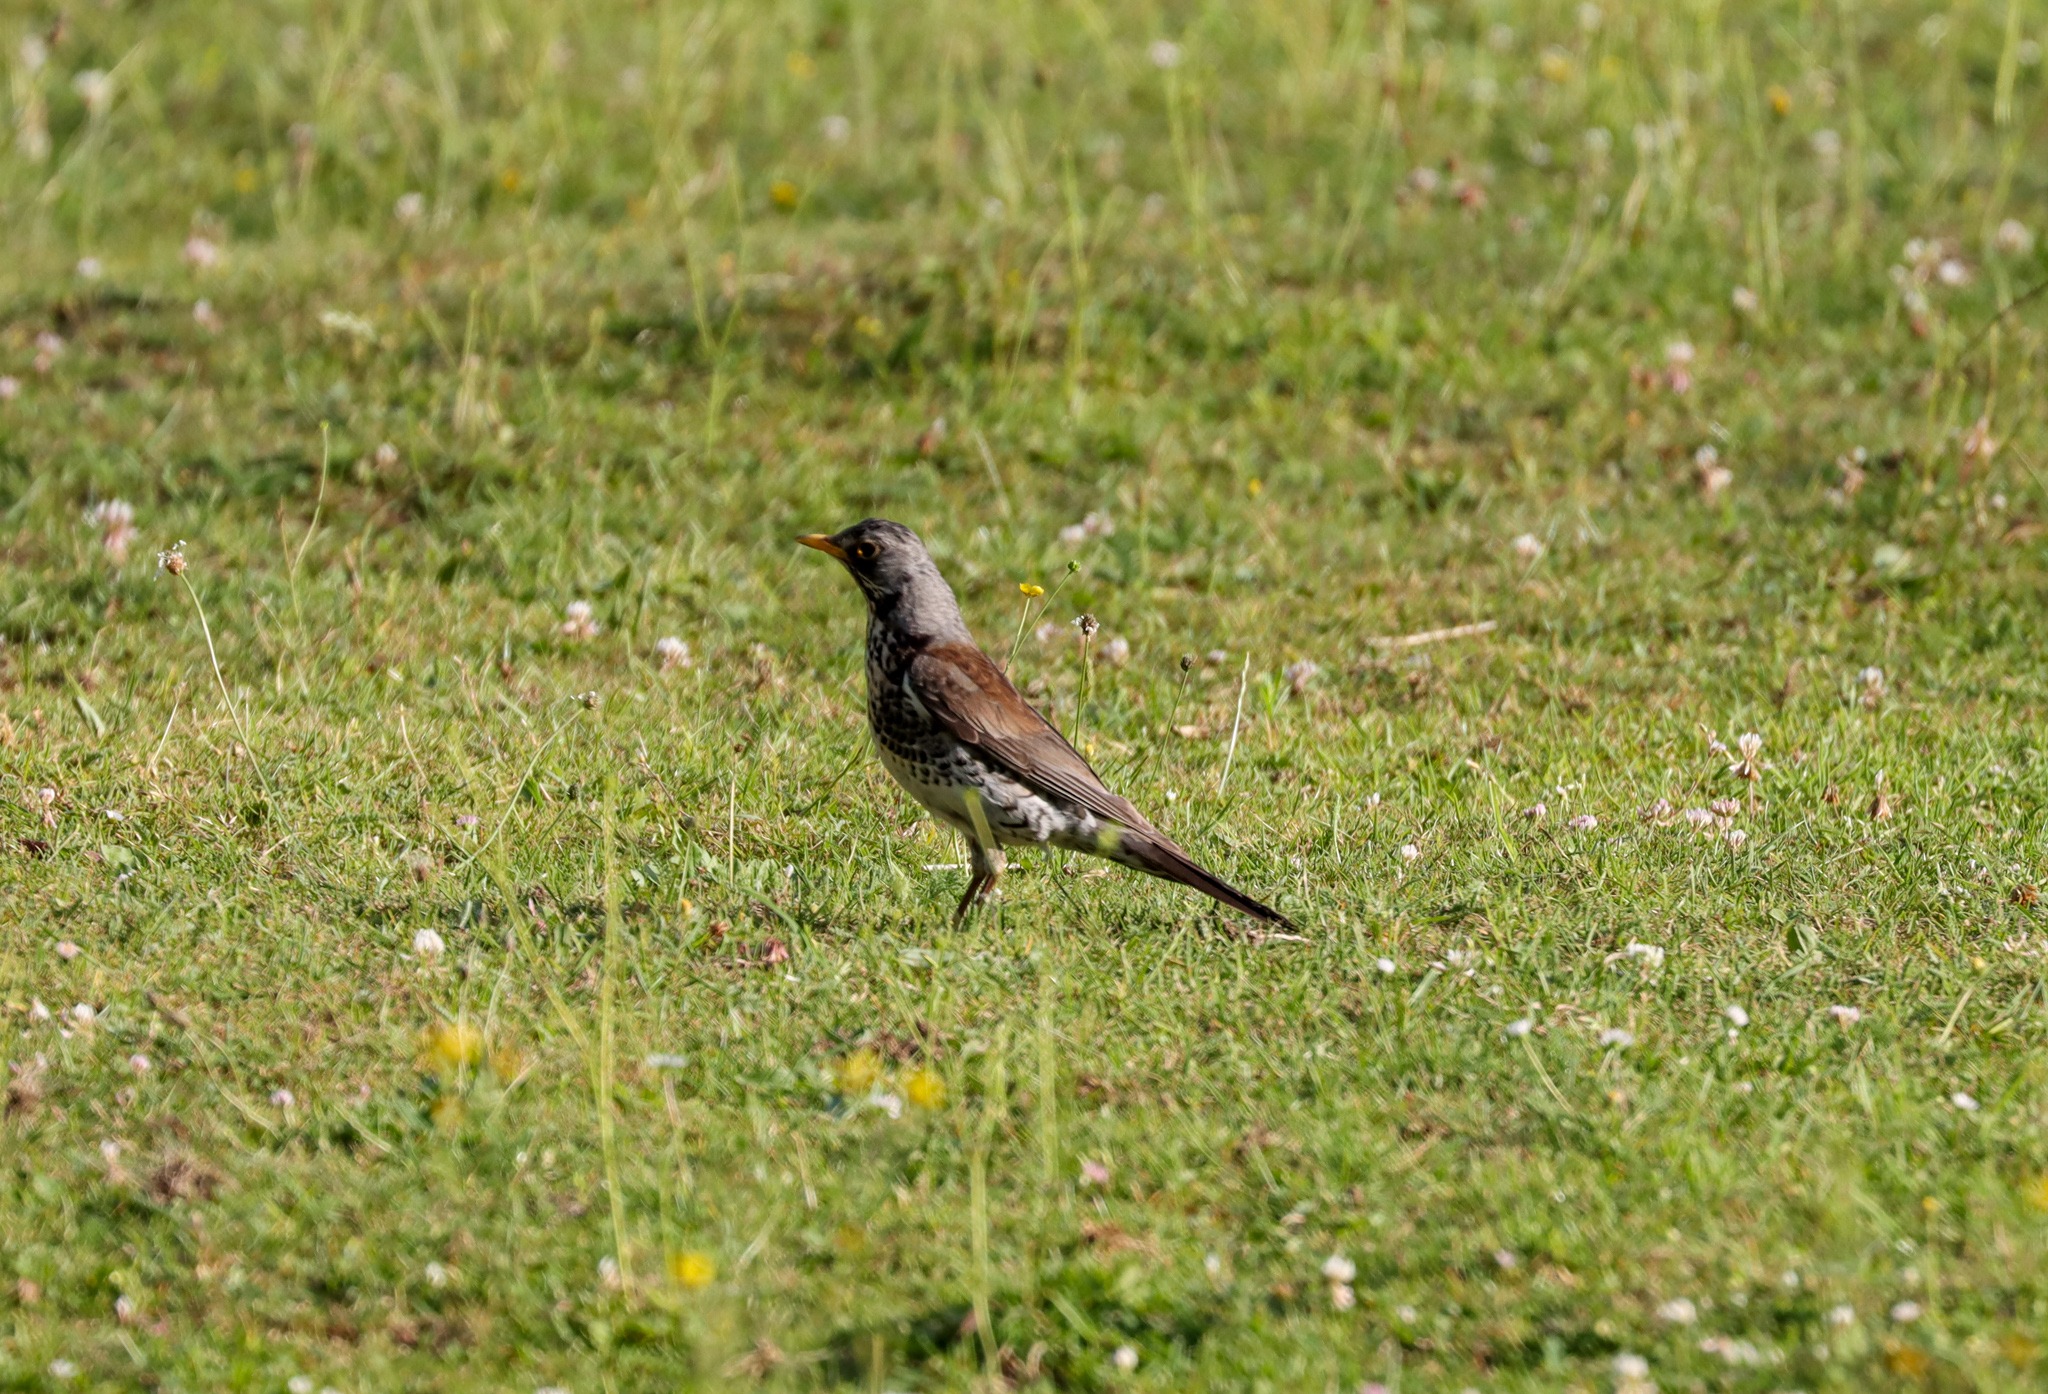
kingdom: Animalia
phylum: Chordata
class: Aves
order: Passeriformes
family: Turdidae
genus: Turdus
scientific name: Turdus pilaris
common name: Sjagger
